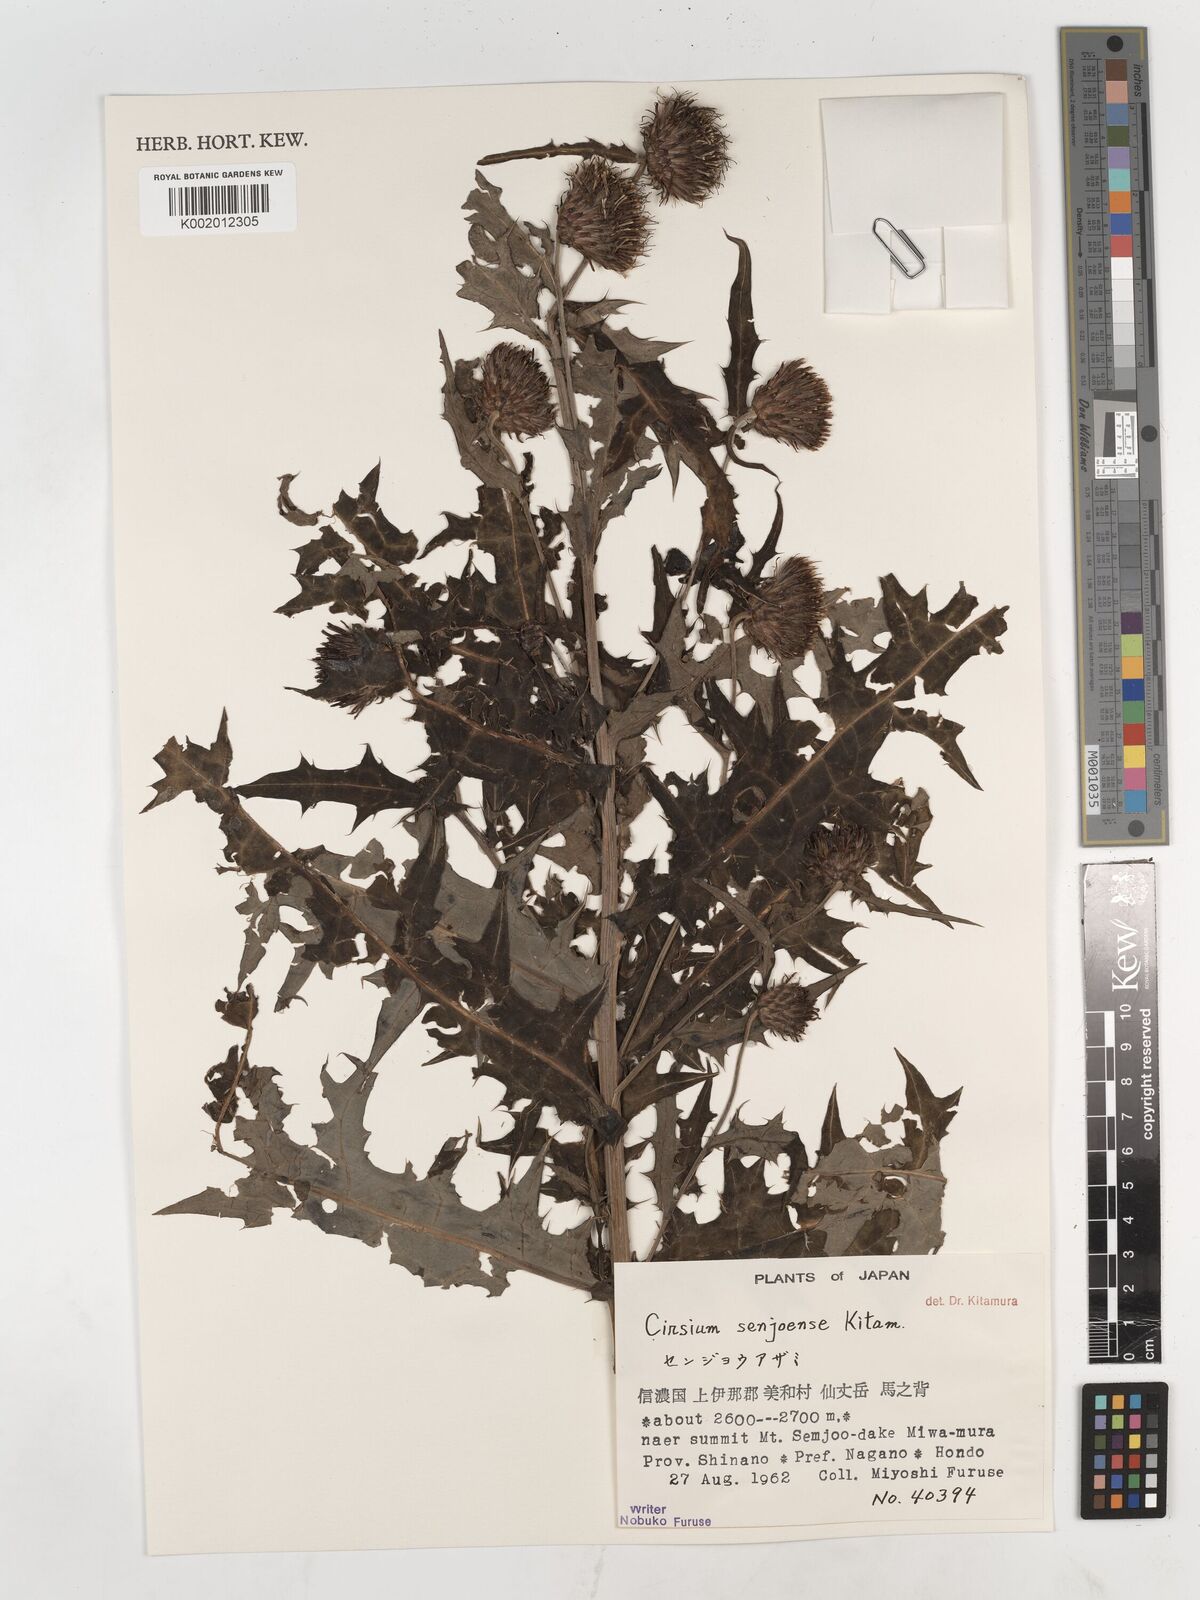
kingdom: Plantae
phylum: Tracheophyta
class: Magnoliopsida
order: Asterales
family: Asteraceae
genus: Cirsium
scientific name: Cirsium senjoense
